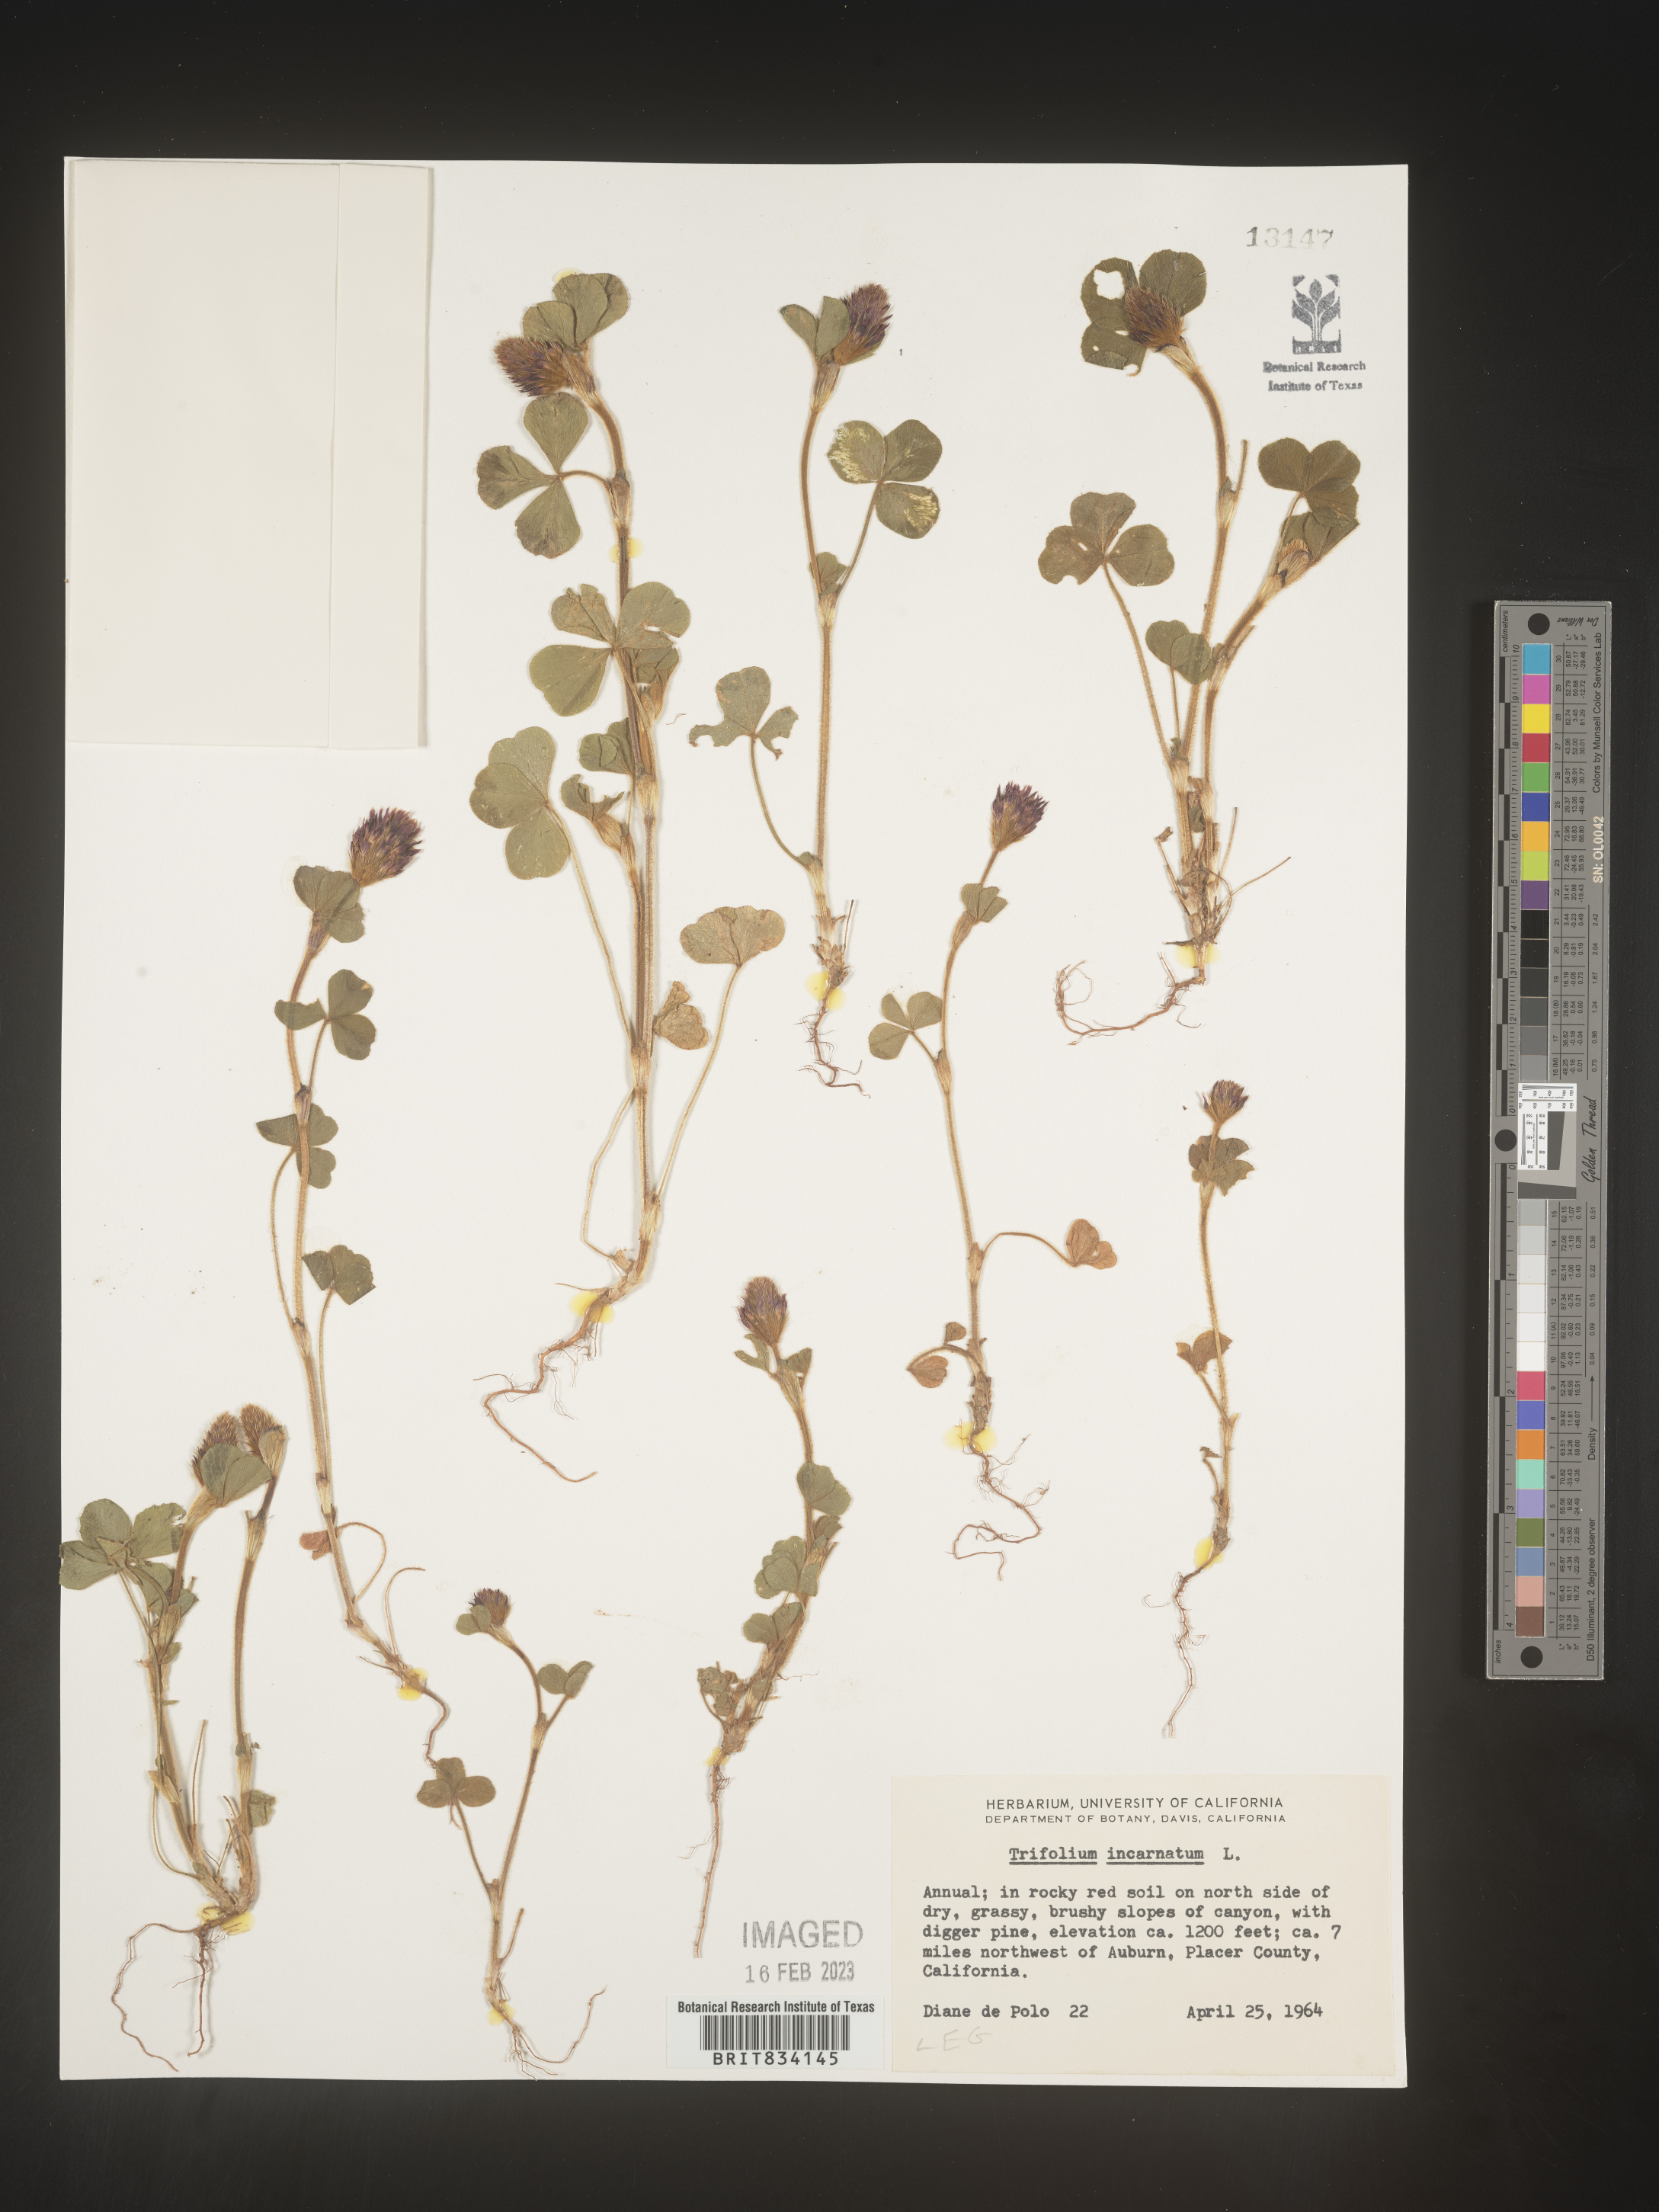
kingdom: Plantae
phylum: Tracheophyta
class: Magnoliopsida
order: Fabales
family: Fabaceae
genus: Trifolium
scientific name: Trifolium incarnatum
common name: Crimson clover
